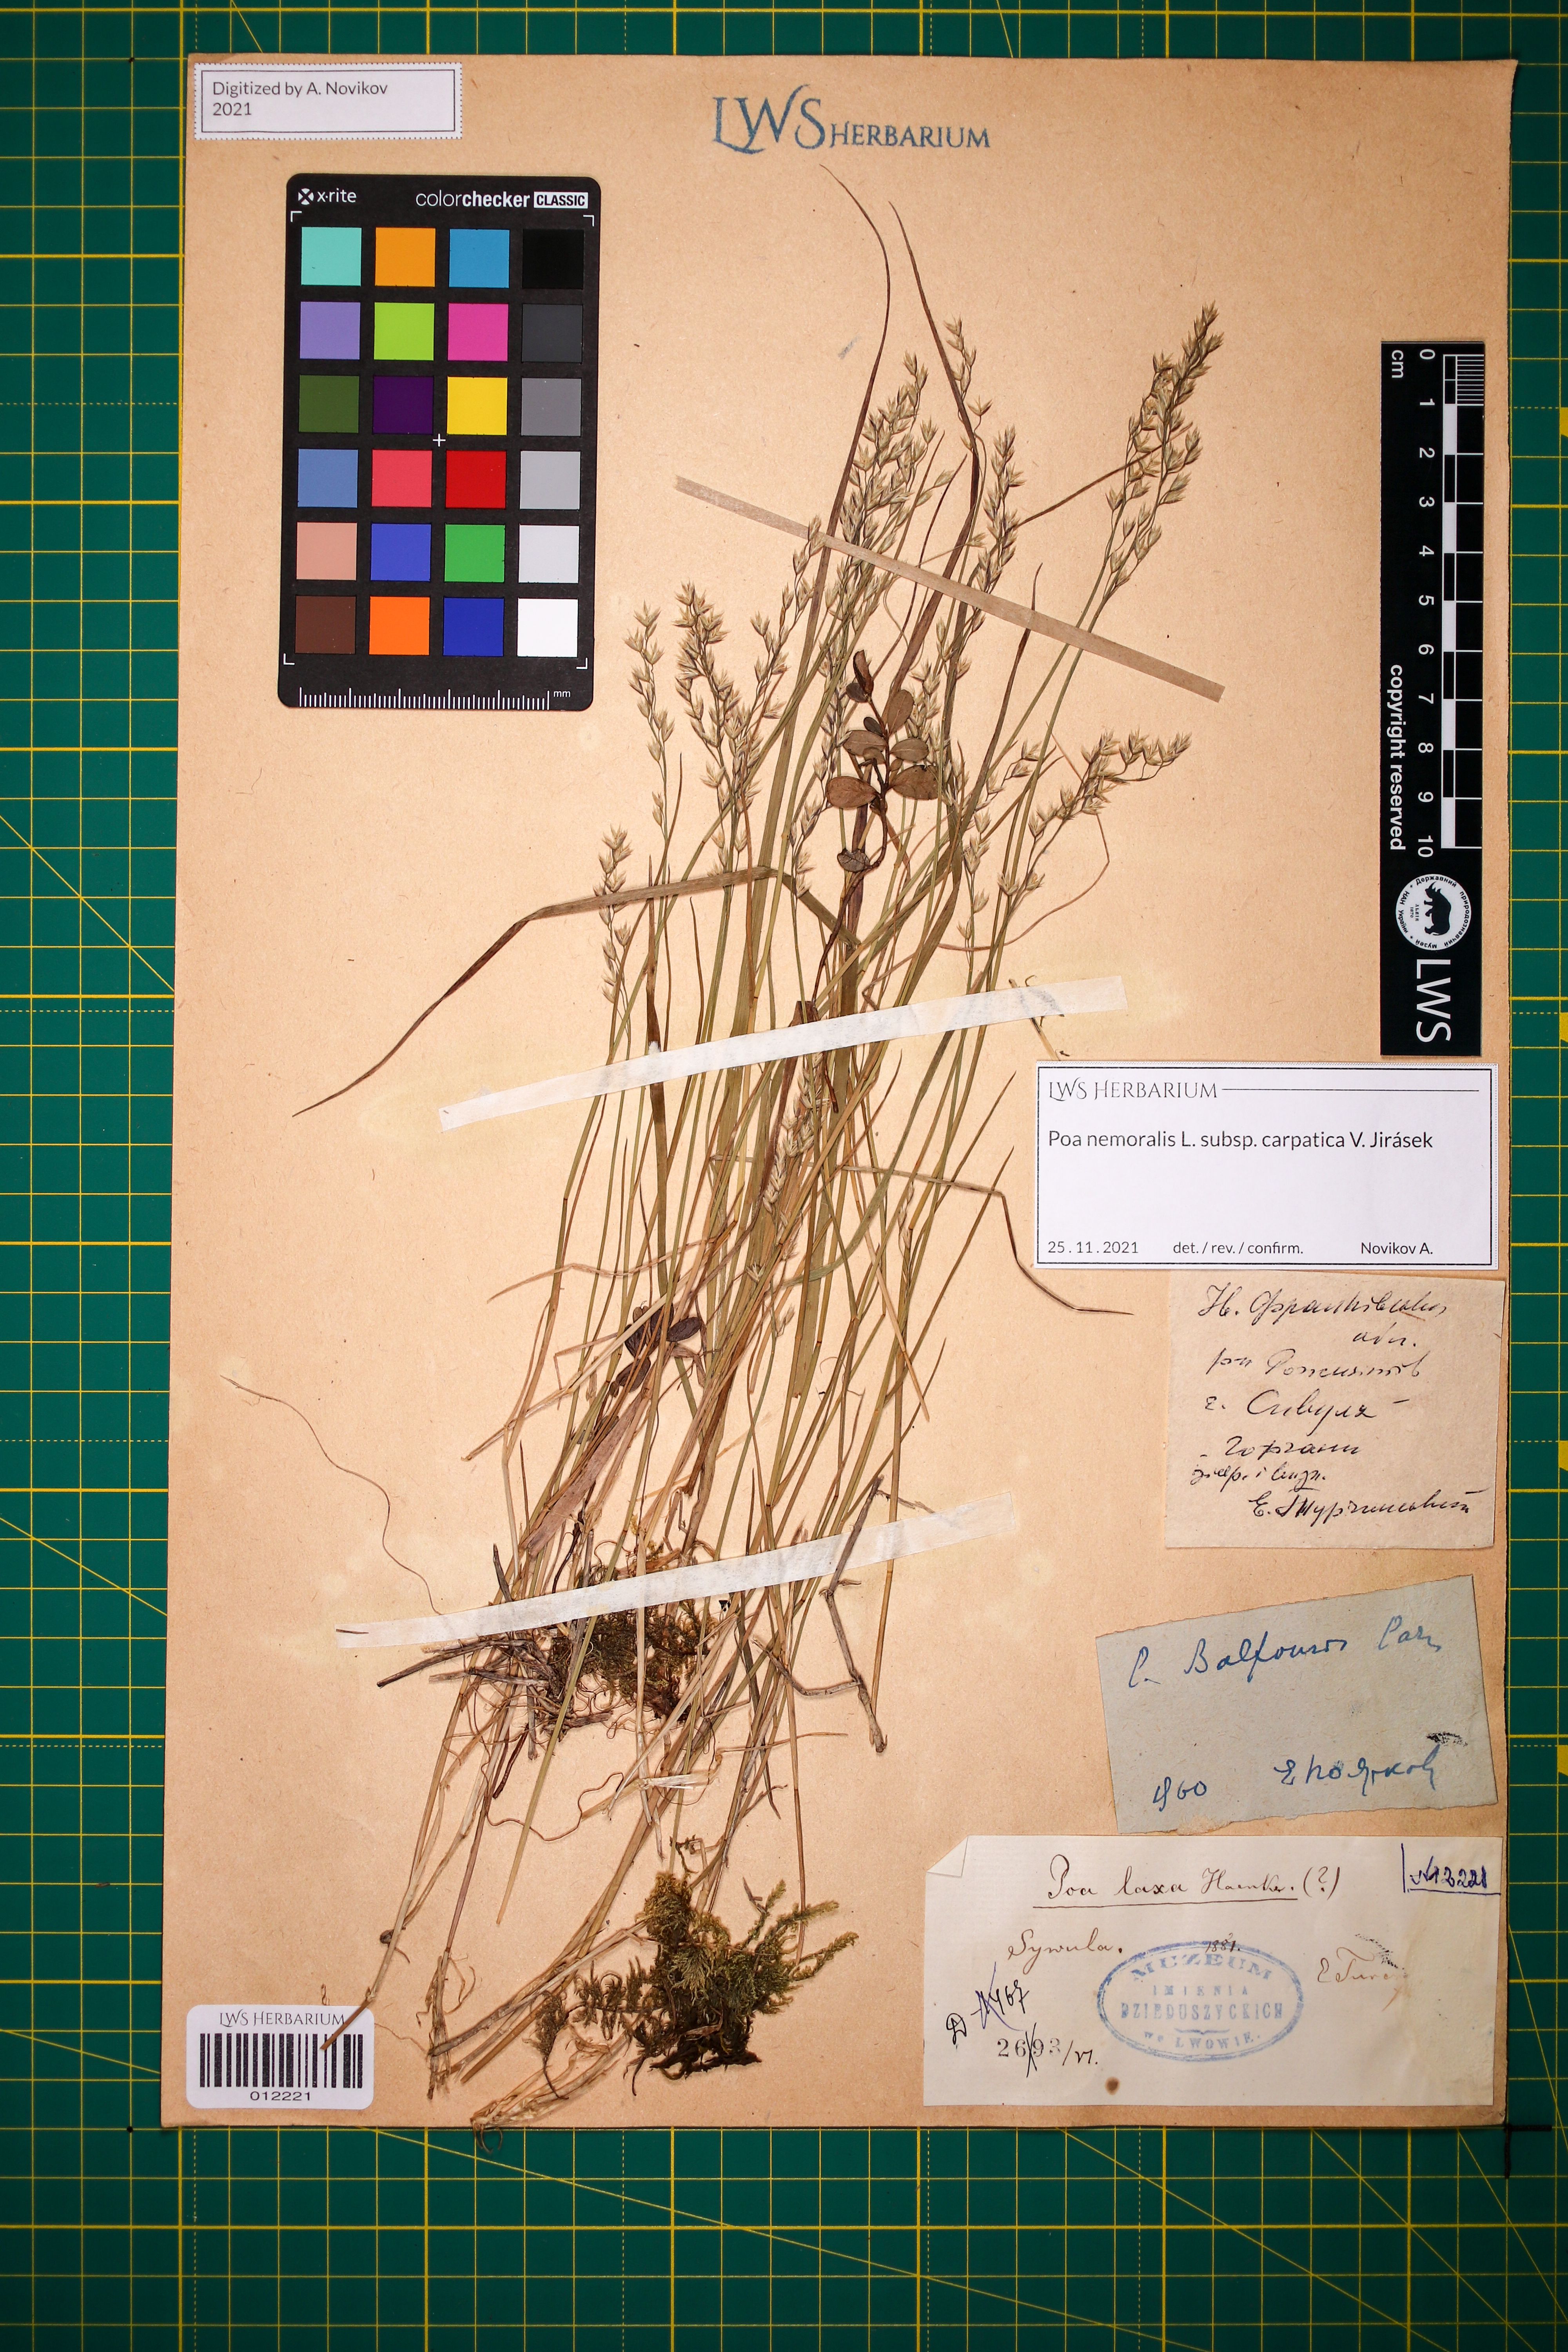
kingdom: Plantae
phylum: Tracheophyta
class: Liliopsida
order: Poales
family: Poaceae
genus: Poa
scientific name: Poa carpatica
